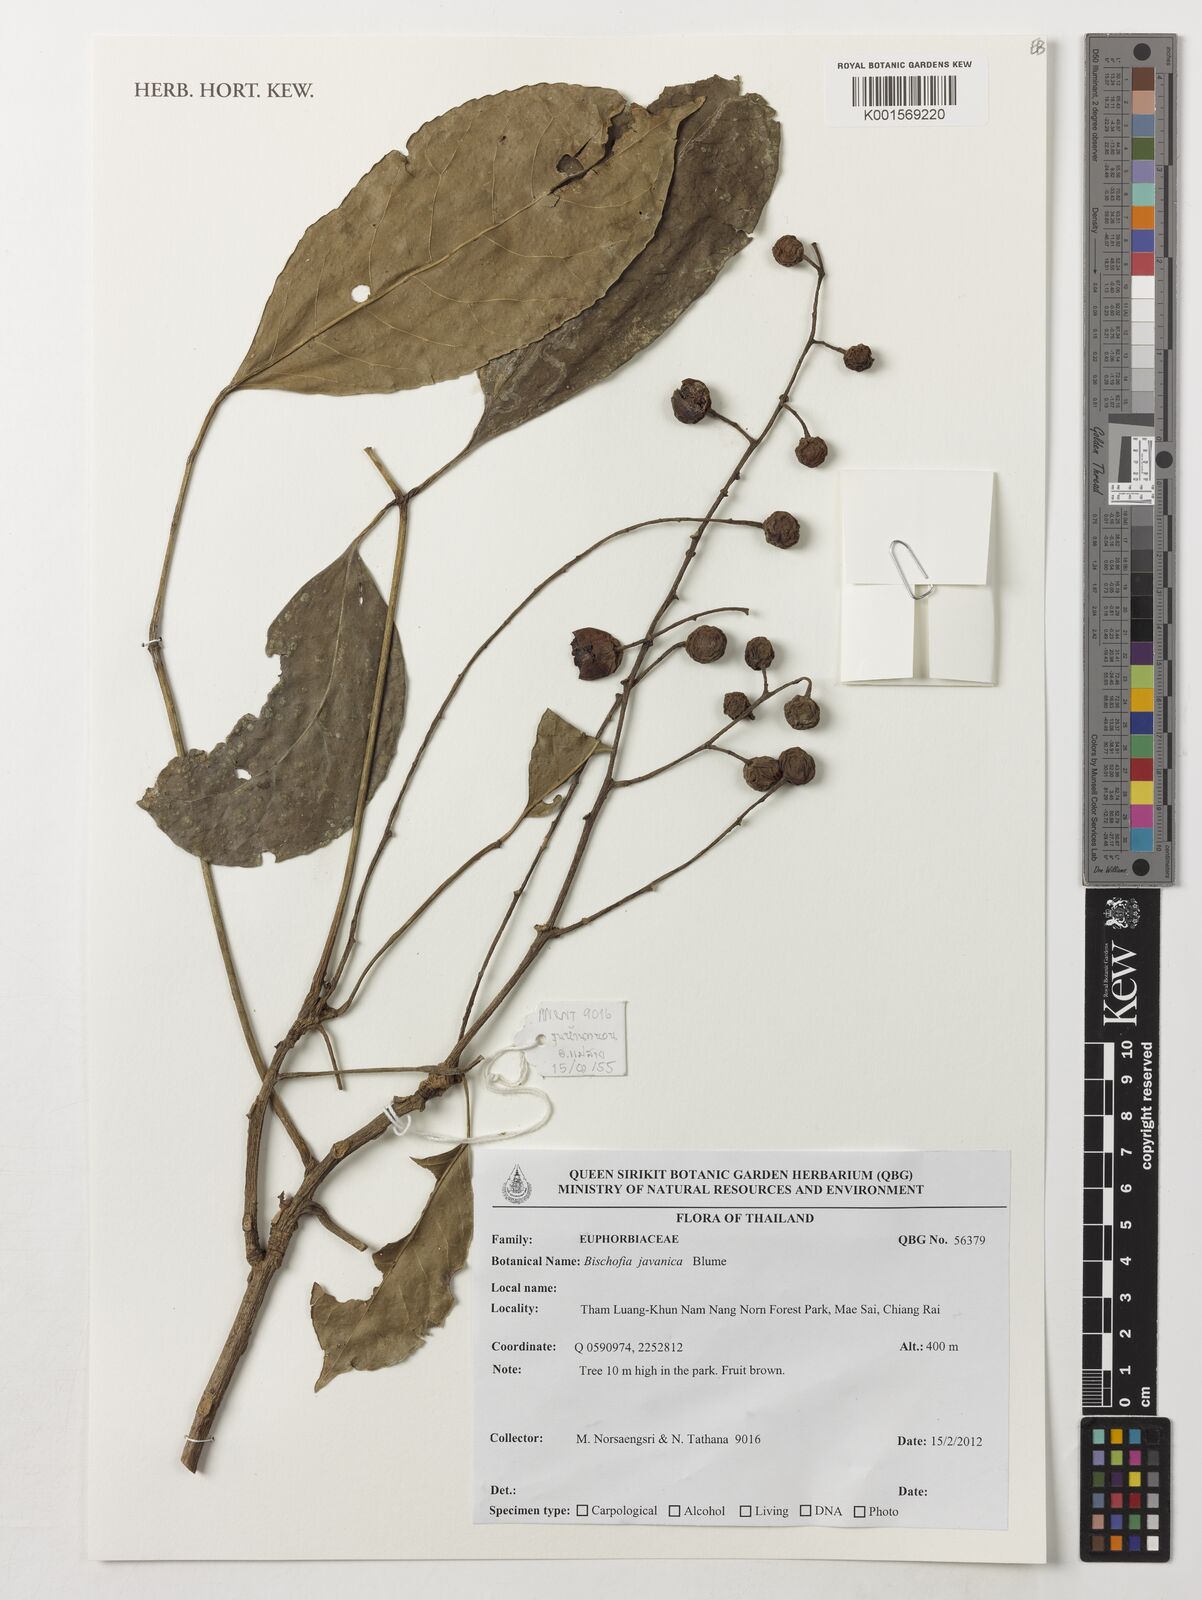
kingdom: Plantae
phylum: Tracheophyta
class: Magnoliopsida
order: Malpighiales
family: Phyllanthaceae
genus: Bischofia
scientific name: Bischofia javanica
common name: Javanese bishopwood
